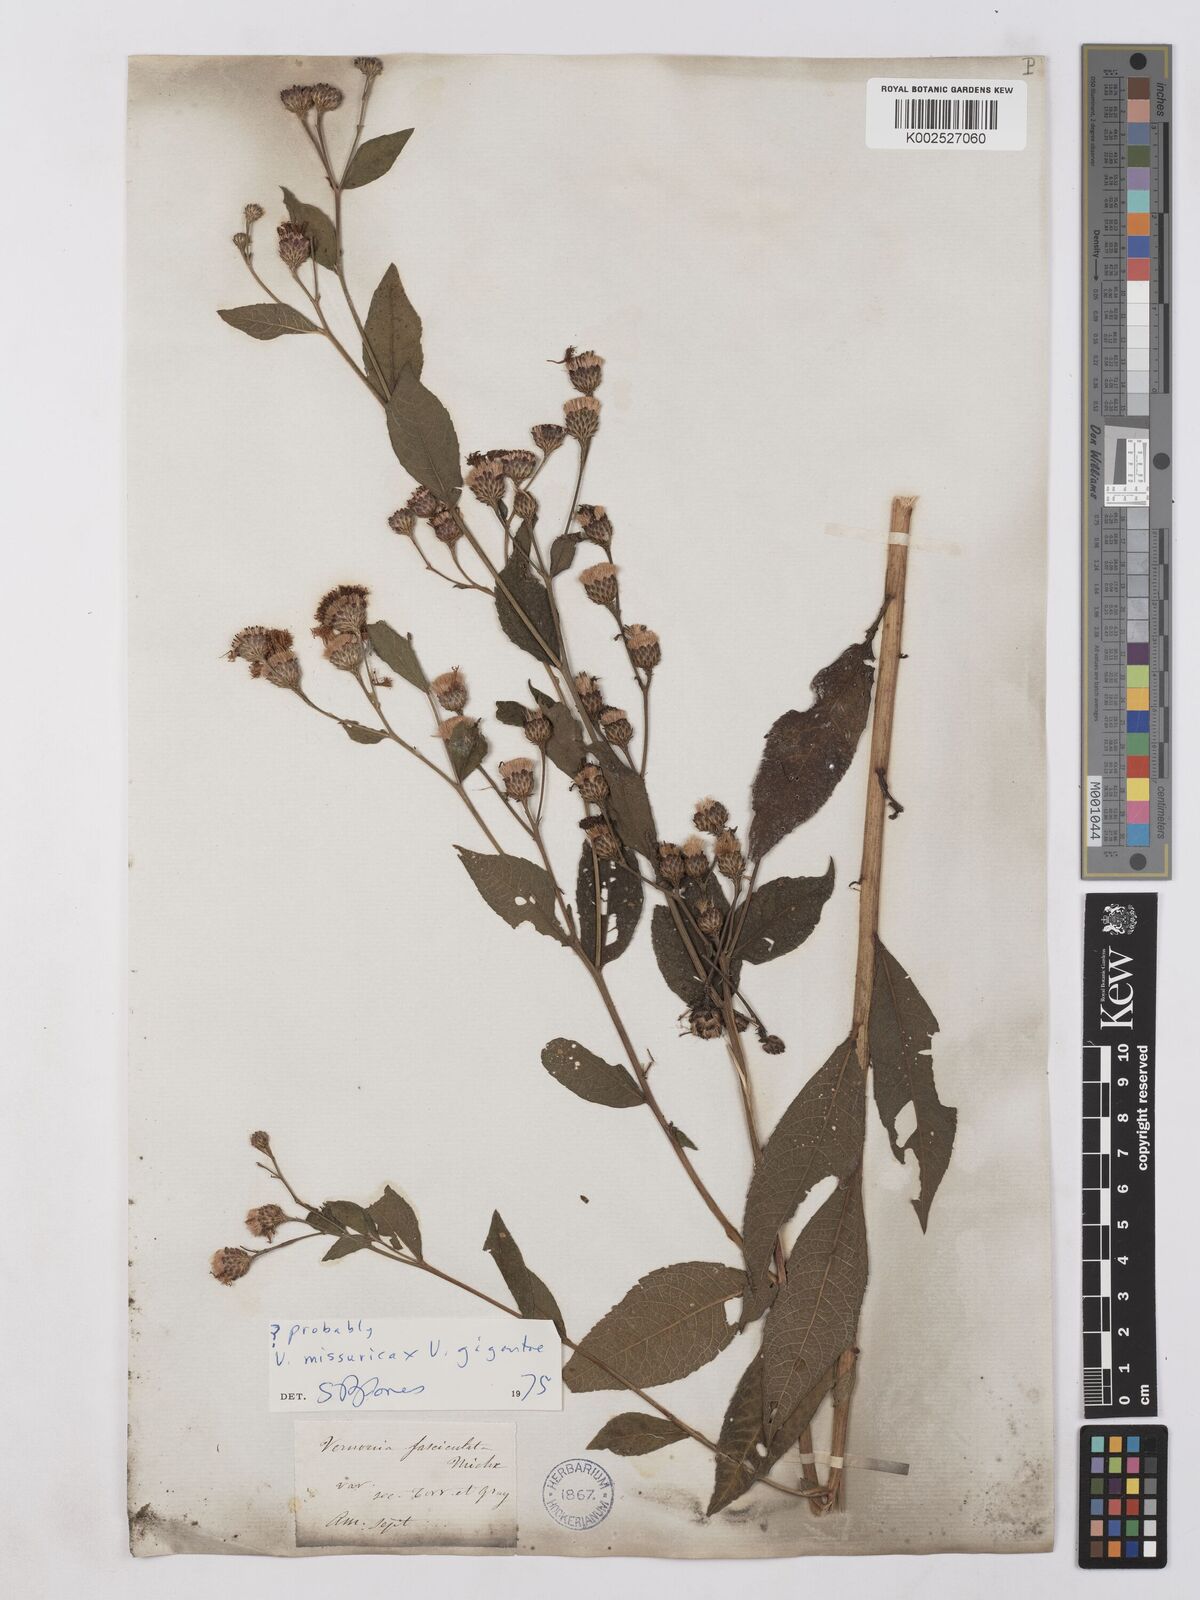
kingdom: Plantae
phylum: Tracheophyta
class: Magnoliopsida
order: Asterales
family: Asteraceae
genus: Vernonia
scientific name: Vernonia gigantea
